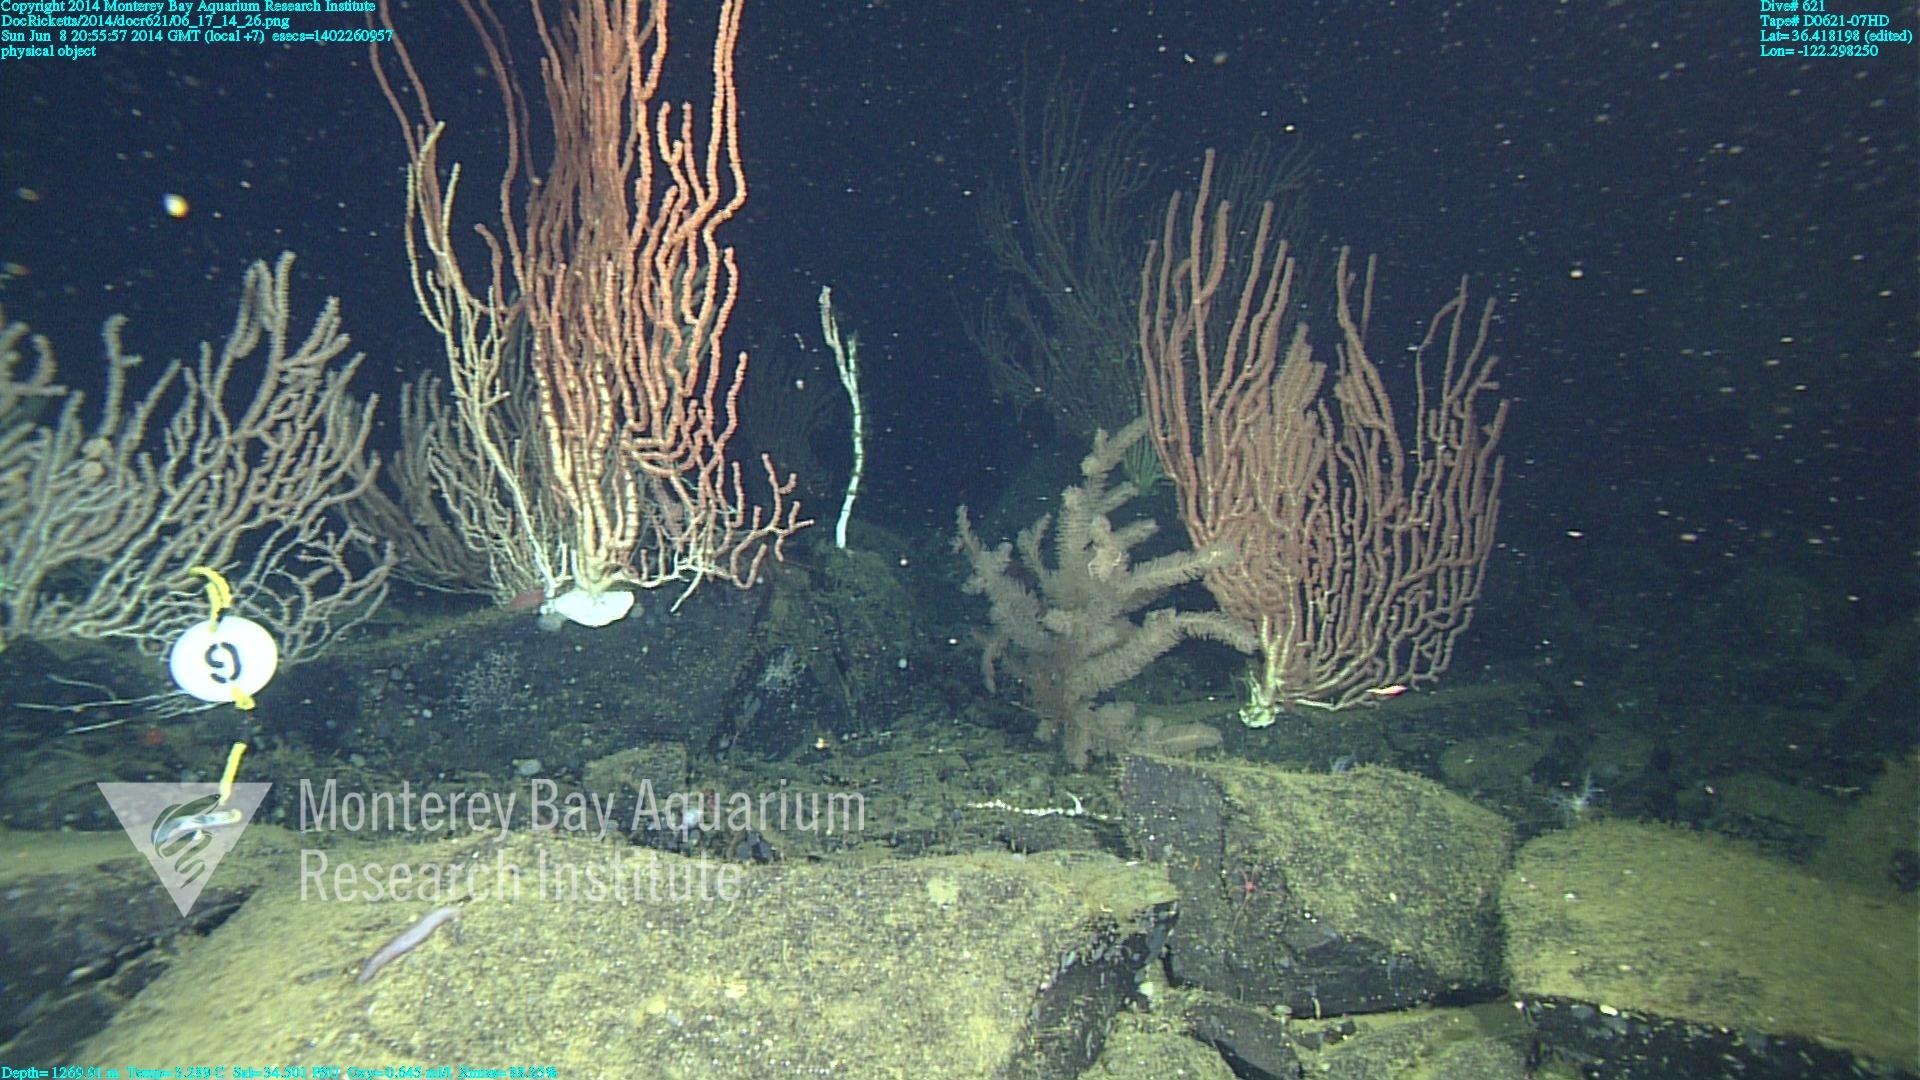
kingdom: Animalia
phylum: Cnidaria
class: Anthozoa
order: Antipatharia
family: Schizopathidae
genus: Lillipathes
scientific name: Lillipathes
